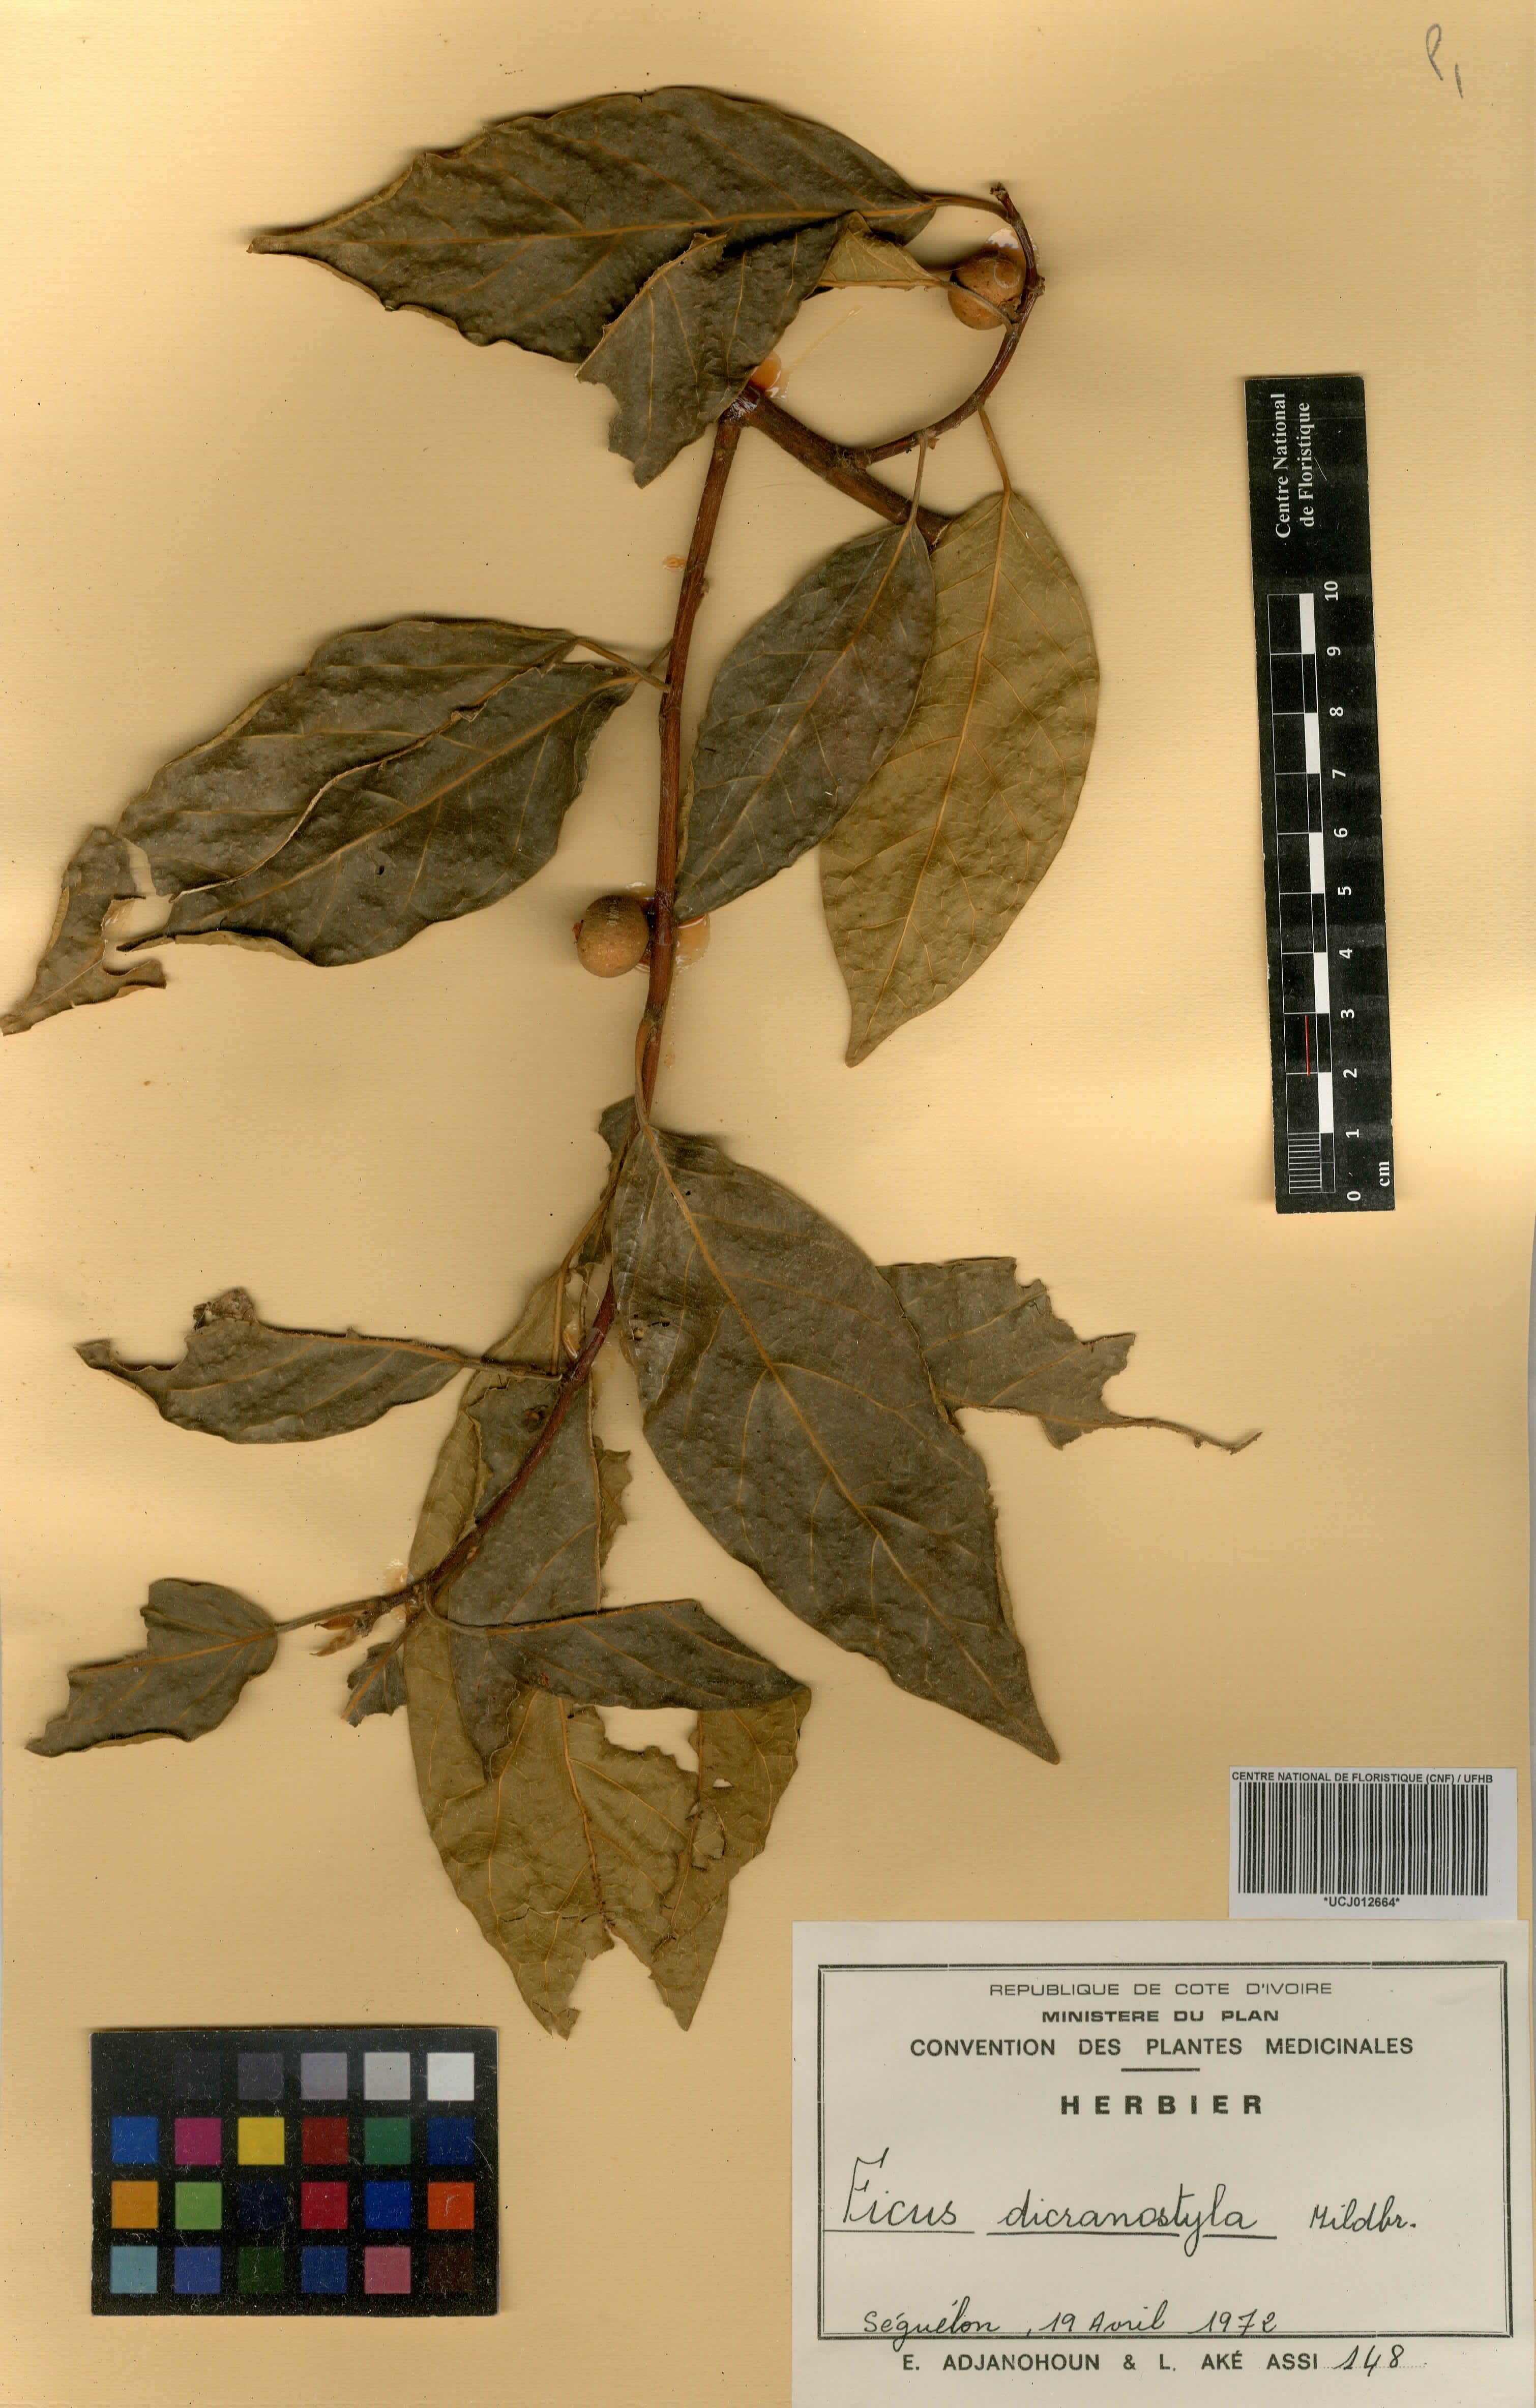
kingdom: Plantae
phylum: Tracheophyta
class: Magnoliopsida
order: Rosales
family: Moraceae
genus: Ficus
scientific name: Ficus dicranostyla
